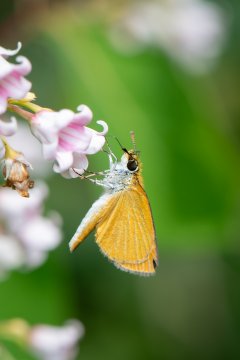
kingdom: Animalia
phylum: Arthropoda
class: Insecta
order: Lepidoptera
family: Hesperiidae
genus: Ancyloxypha
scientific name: Ancyloxypha numitor
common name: Least Skipper
